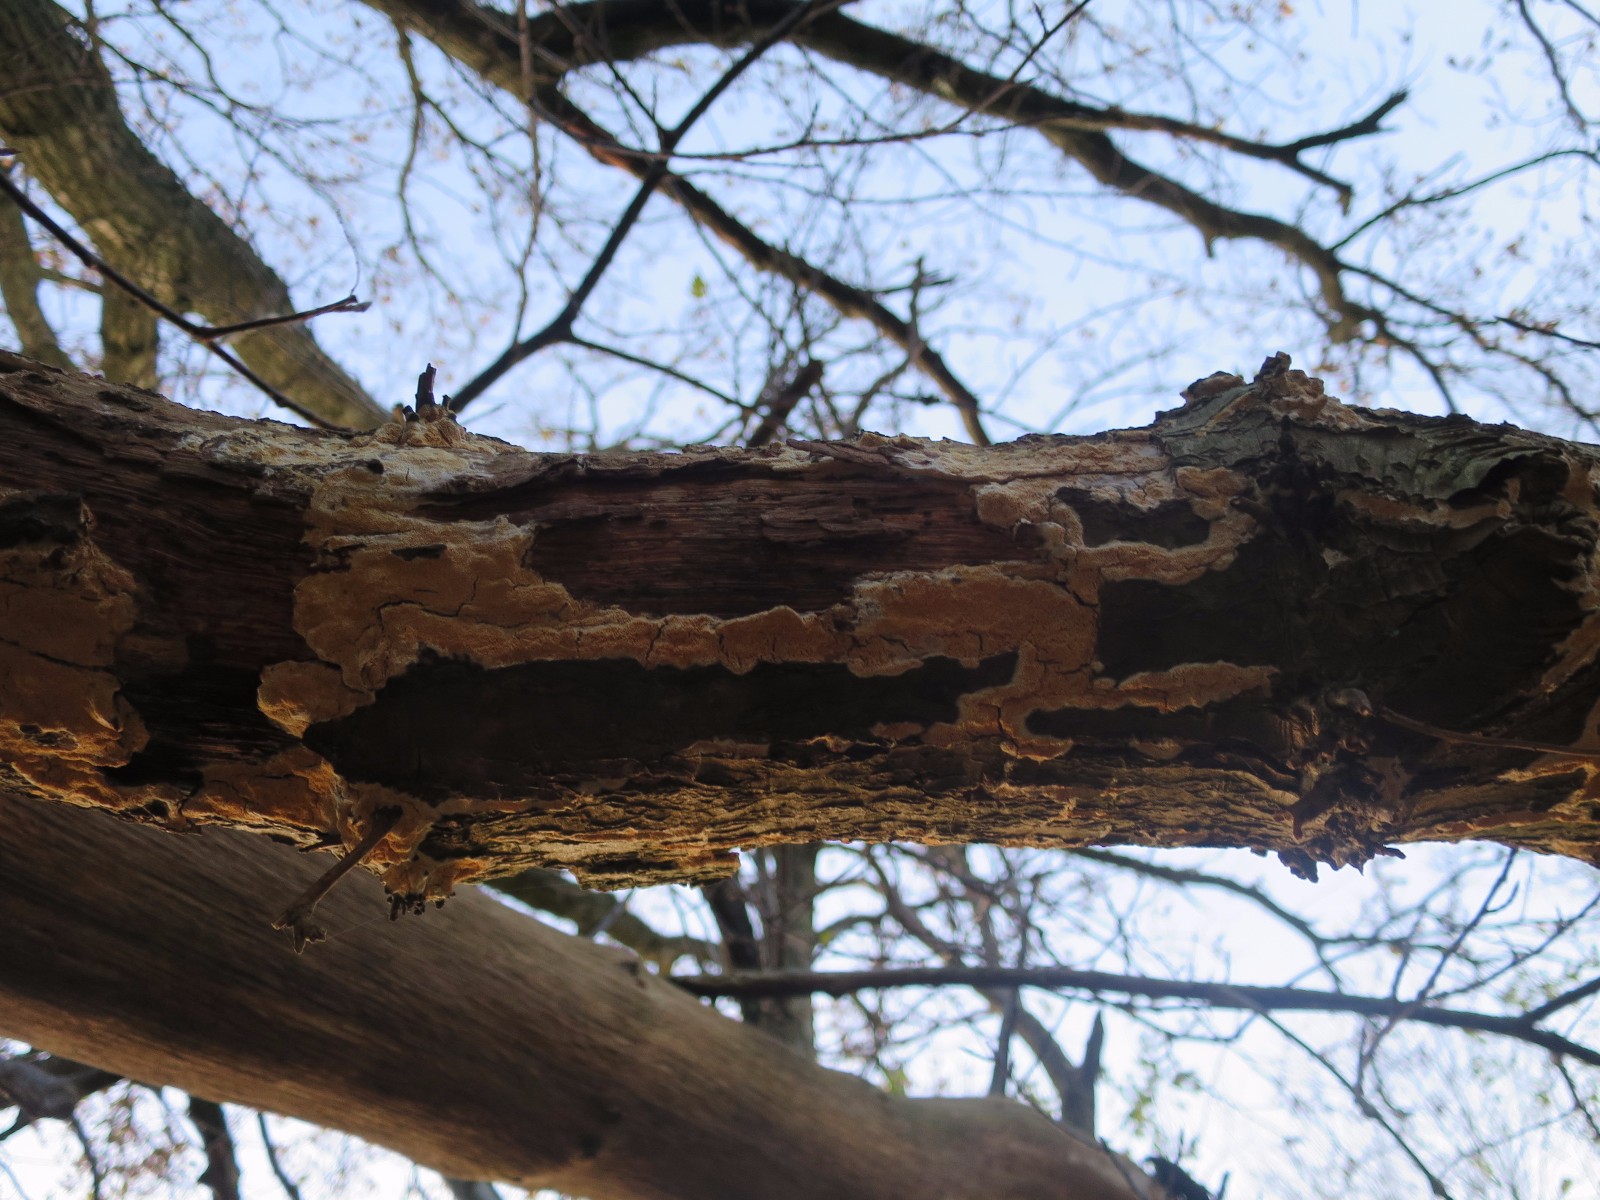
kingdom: Fungi
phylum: Basidiomycota
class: Agaricomycetes
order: Hymenochaetales
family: Schizoporaceae
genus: Xylodon
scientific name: Xylodon subtropicus
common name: labyrint-tandsvamp
